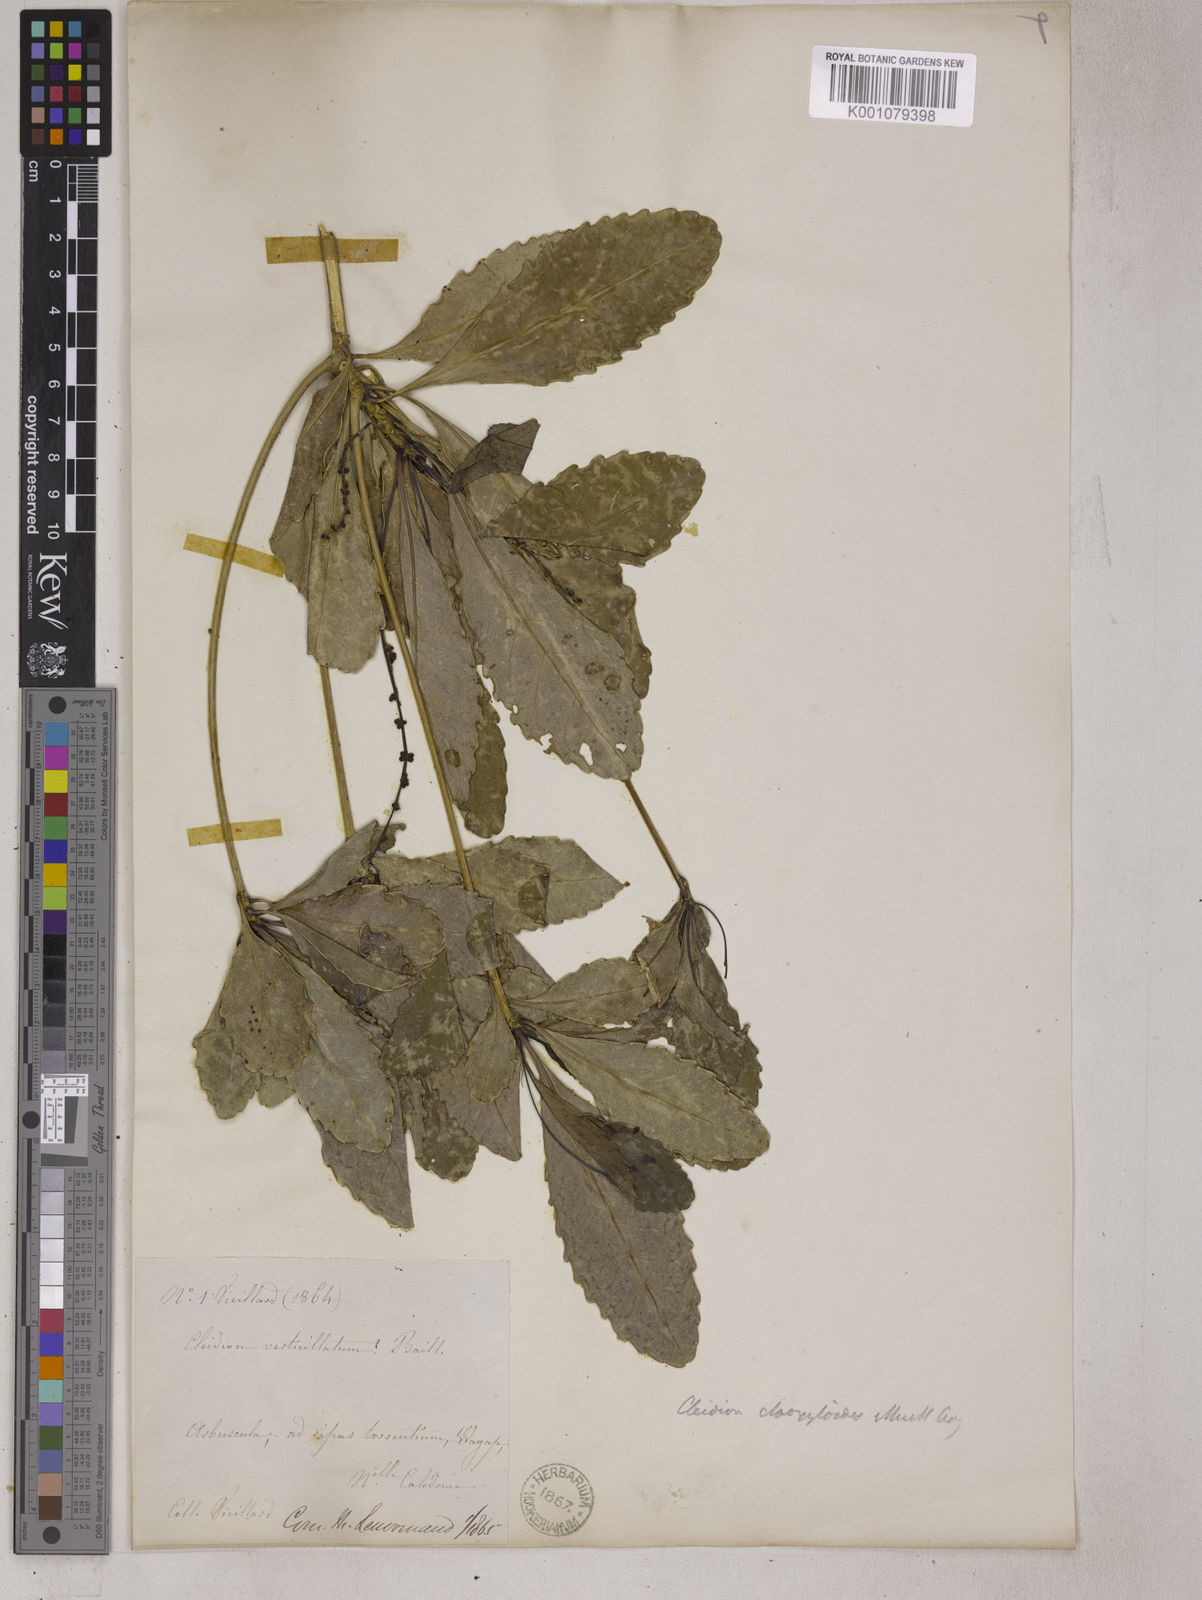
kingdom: Plantae
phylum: Tracheophyta
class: Magnoliopsida
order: Malpighiales
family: Euphorbiaceae
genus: Cleidion
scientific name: Cleidion
